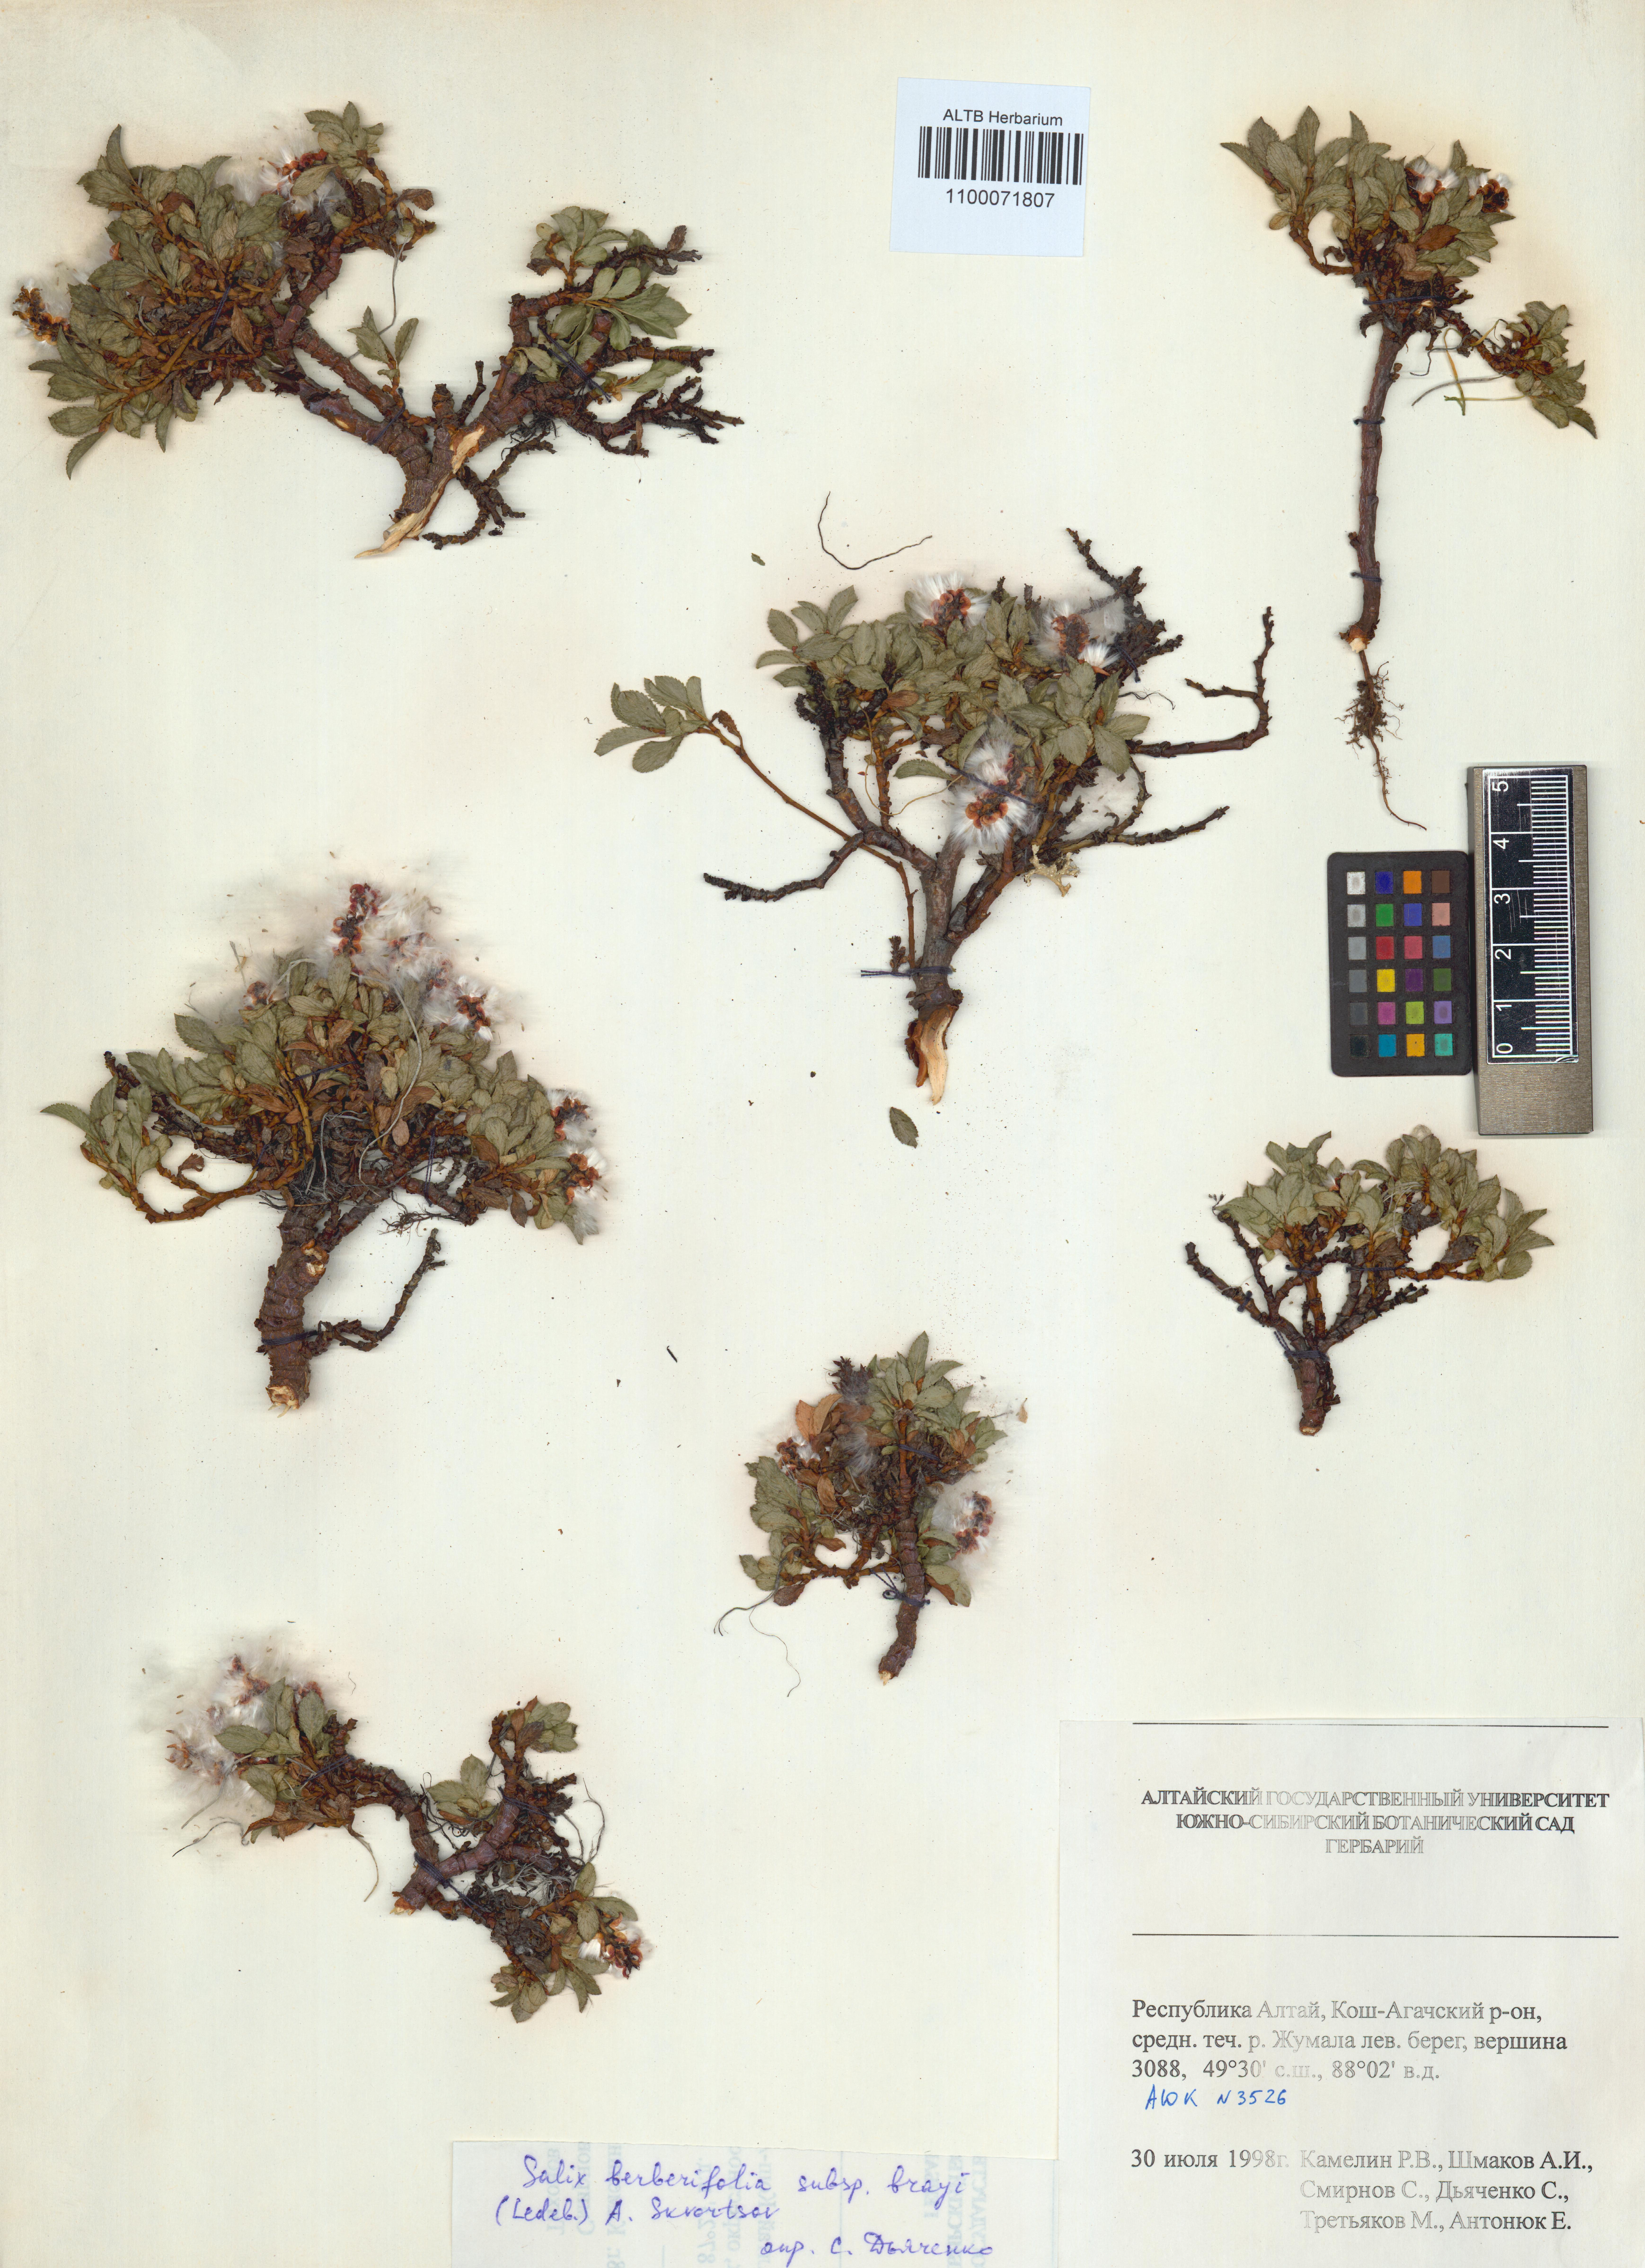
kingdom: Plantae
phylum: Tracheophyta
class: Magnoliopsida
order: Malpighiales
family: Salicaceae
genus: Salix
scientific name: Salix berberifolia
